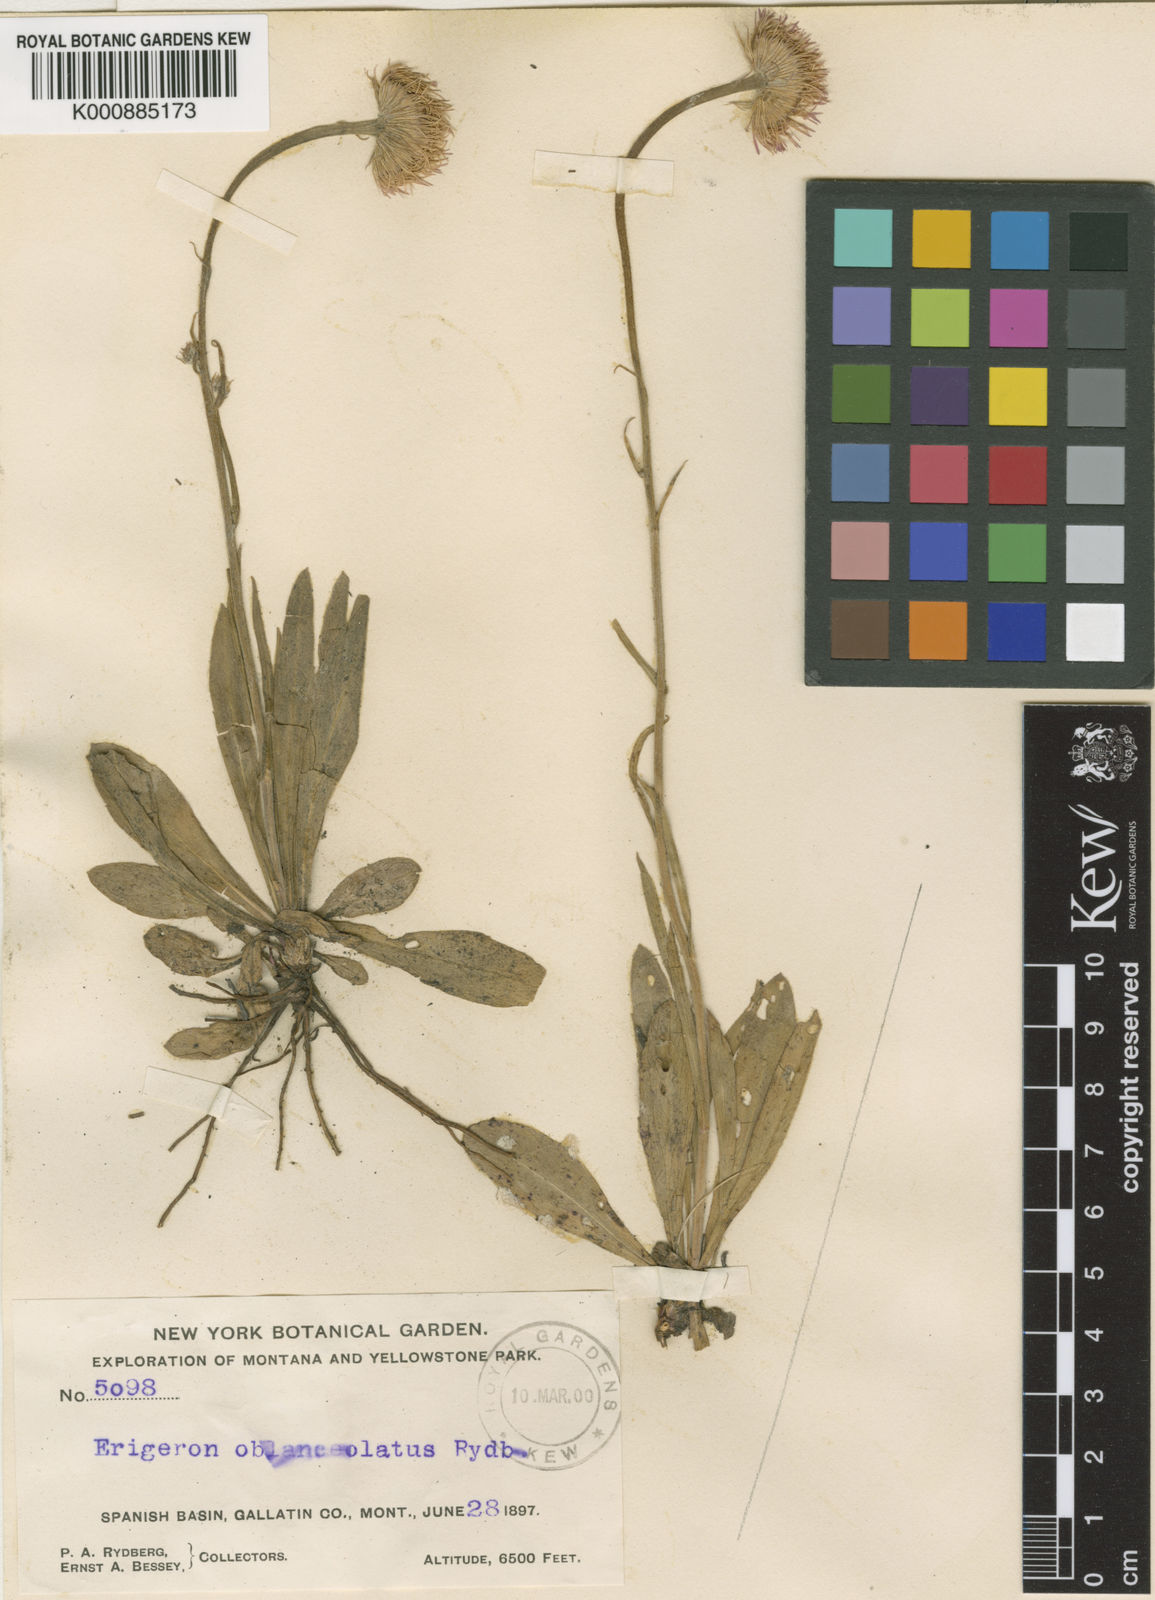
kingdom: Plantae
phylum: Tracheophyta
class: Magnoliopsida
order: Asterales
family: Asteraceae
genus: Erigeron
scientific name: Erigeron glabellus
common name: Smooth fleabane
